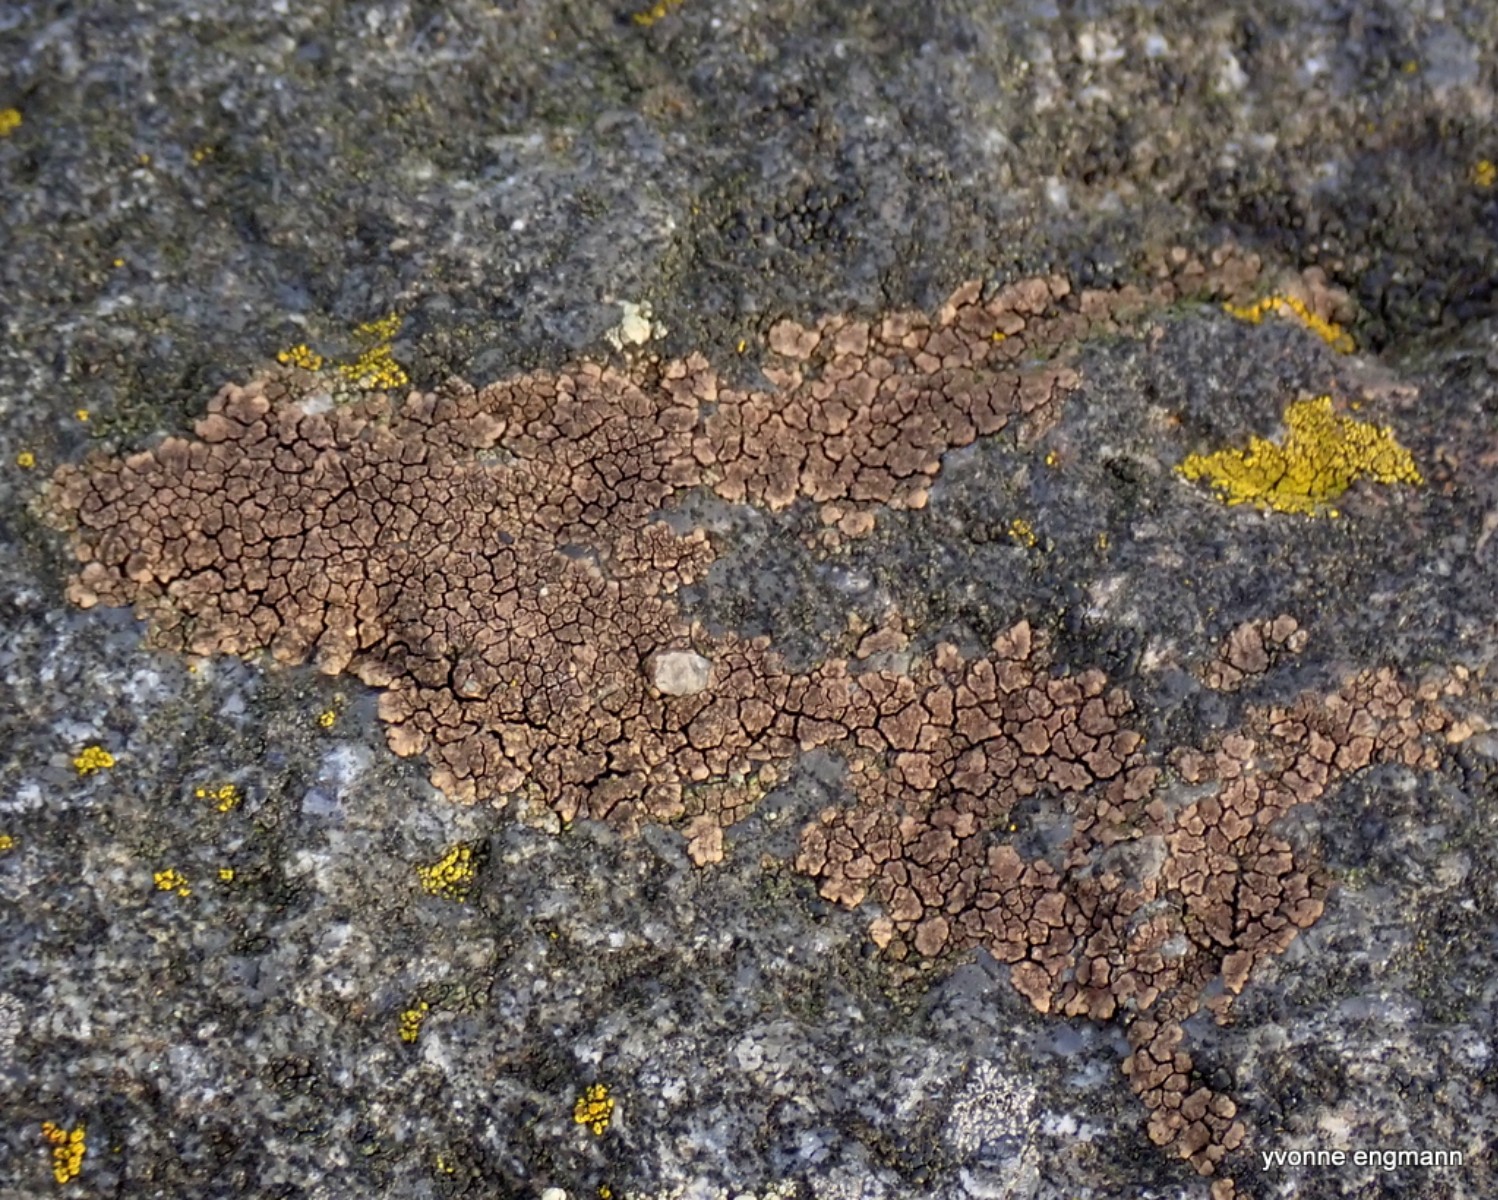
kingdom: Fungi
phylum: Ascomycota
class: Lecanoromycetes
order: Acarosporales
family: Acarosporaceae
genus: Acarospora
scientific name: Acarospora fuscata
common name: brun småsporelav
